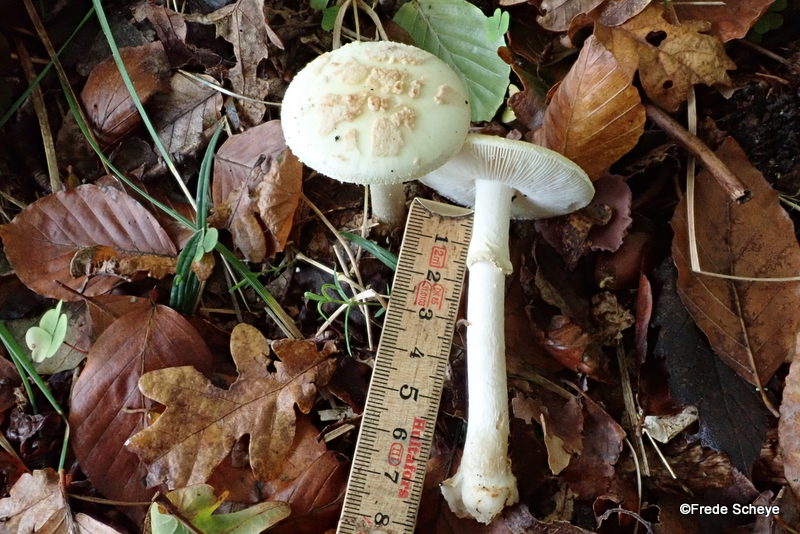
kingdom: Fungi
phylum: Basidiomycota
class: Agaricomycetes
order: Agaricales
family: Amanitaceae
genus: Amanita
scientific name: Amanita citrina
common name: kugleknoldet fluesvamp
